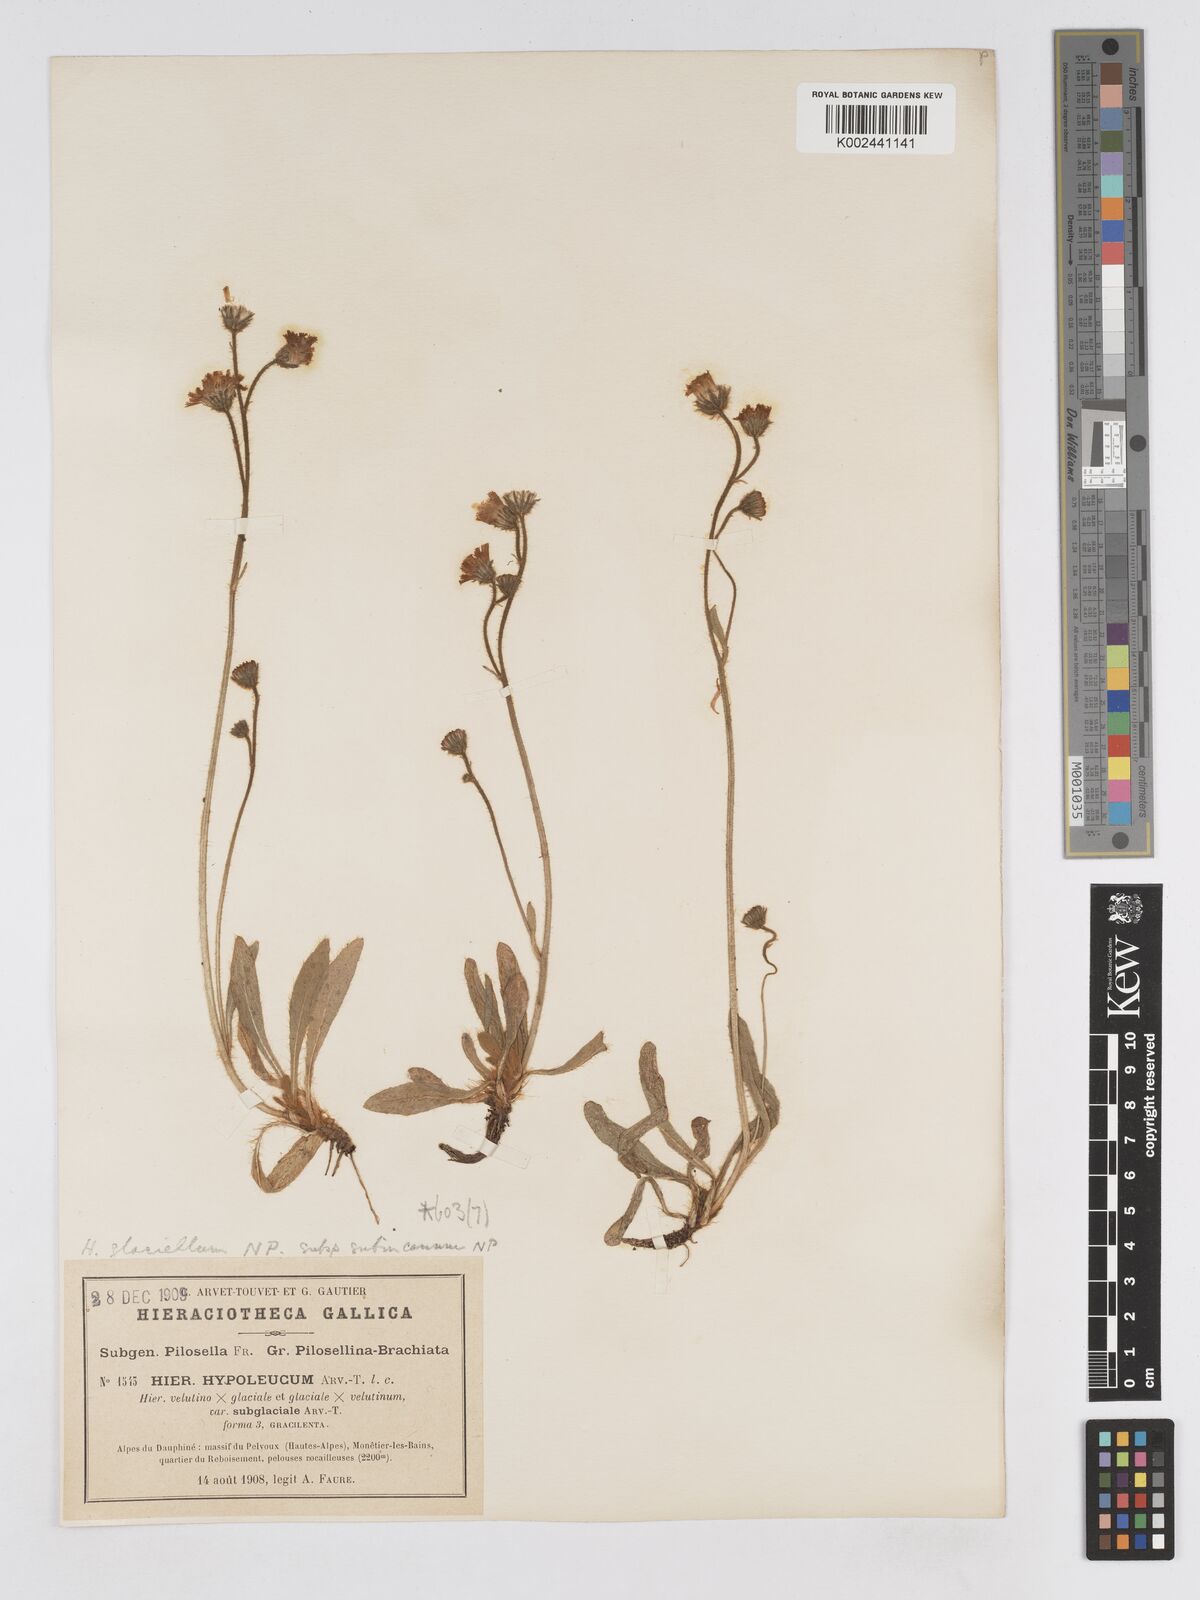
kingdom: Plantae
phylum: Tracheophyta
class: Magnoliopsida
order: Asterales
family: Asteraceae
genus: Pilosella
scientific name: Pilosella hypoleuca
